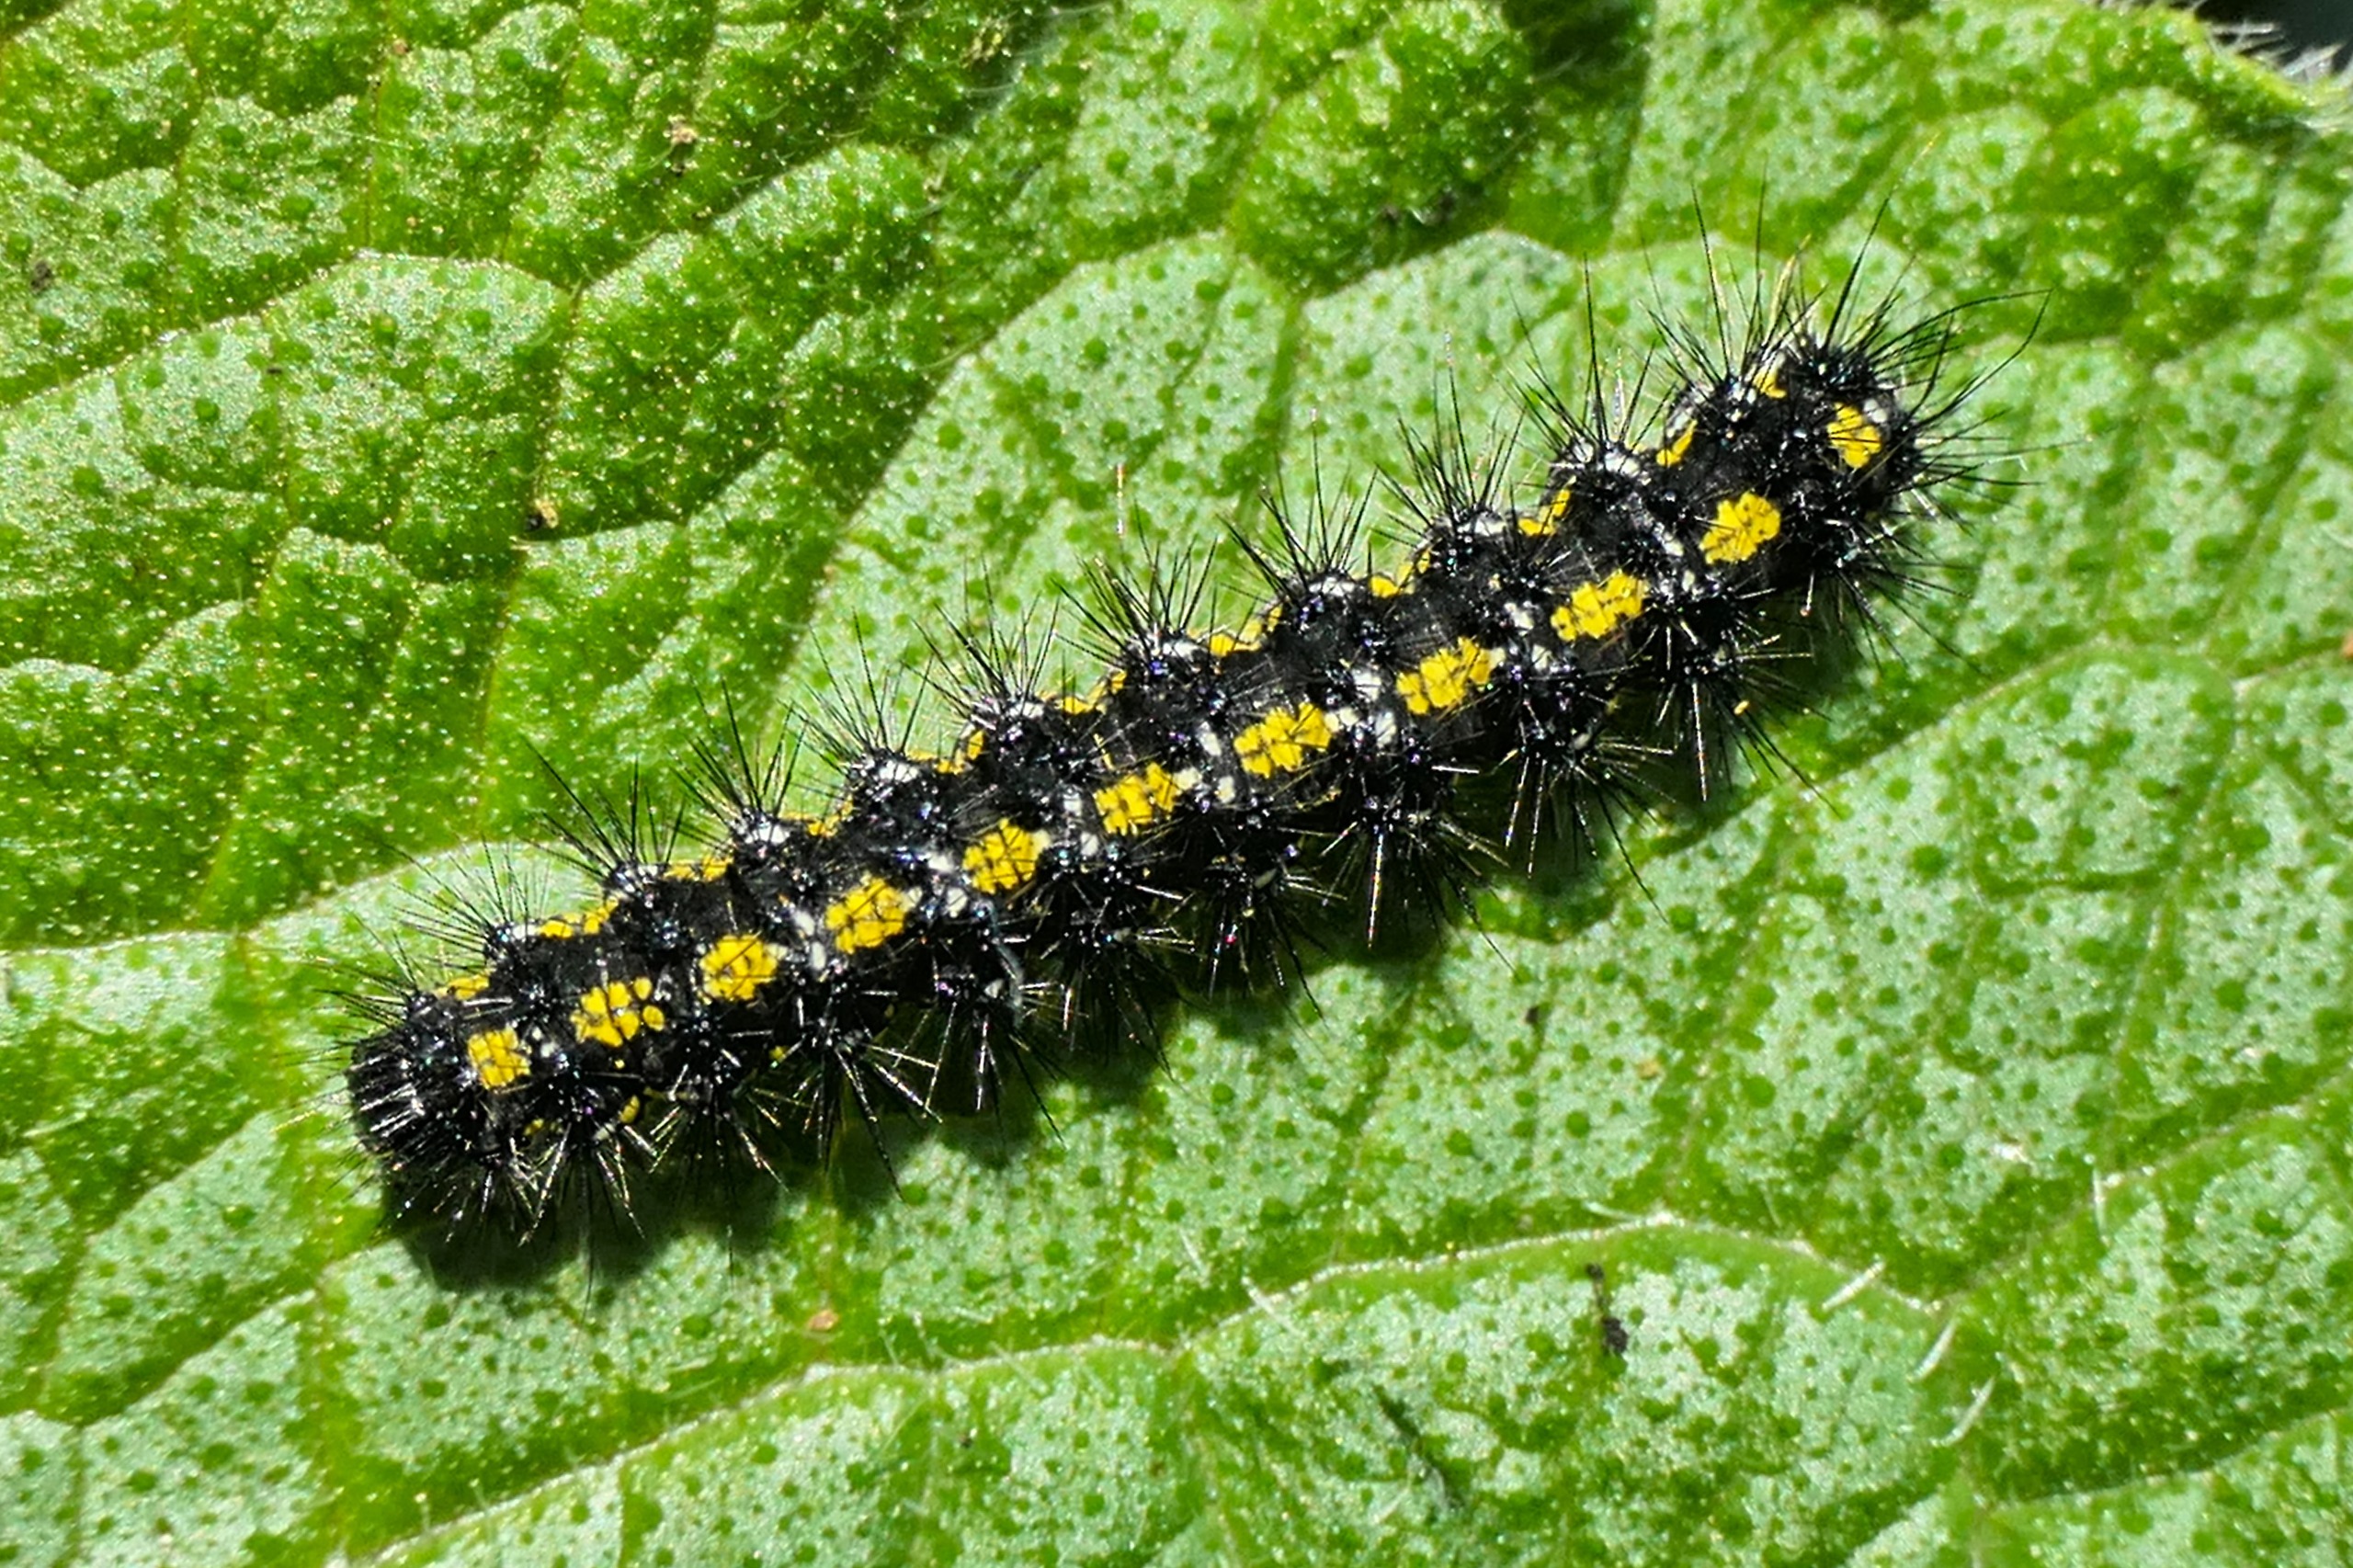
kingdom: Animalia
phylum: Arthropoda
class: Insecta
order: Lepidoptera
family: Erebidae
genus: Callimorpha
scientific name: Callimorpha dominula
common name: Jomfrubjørn
